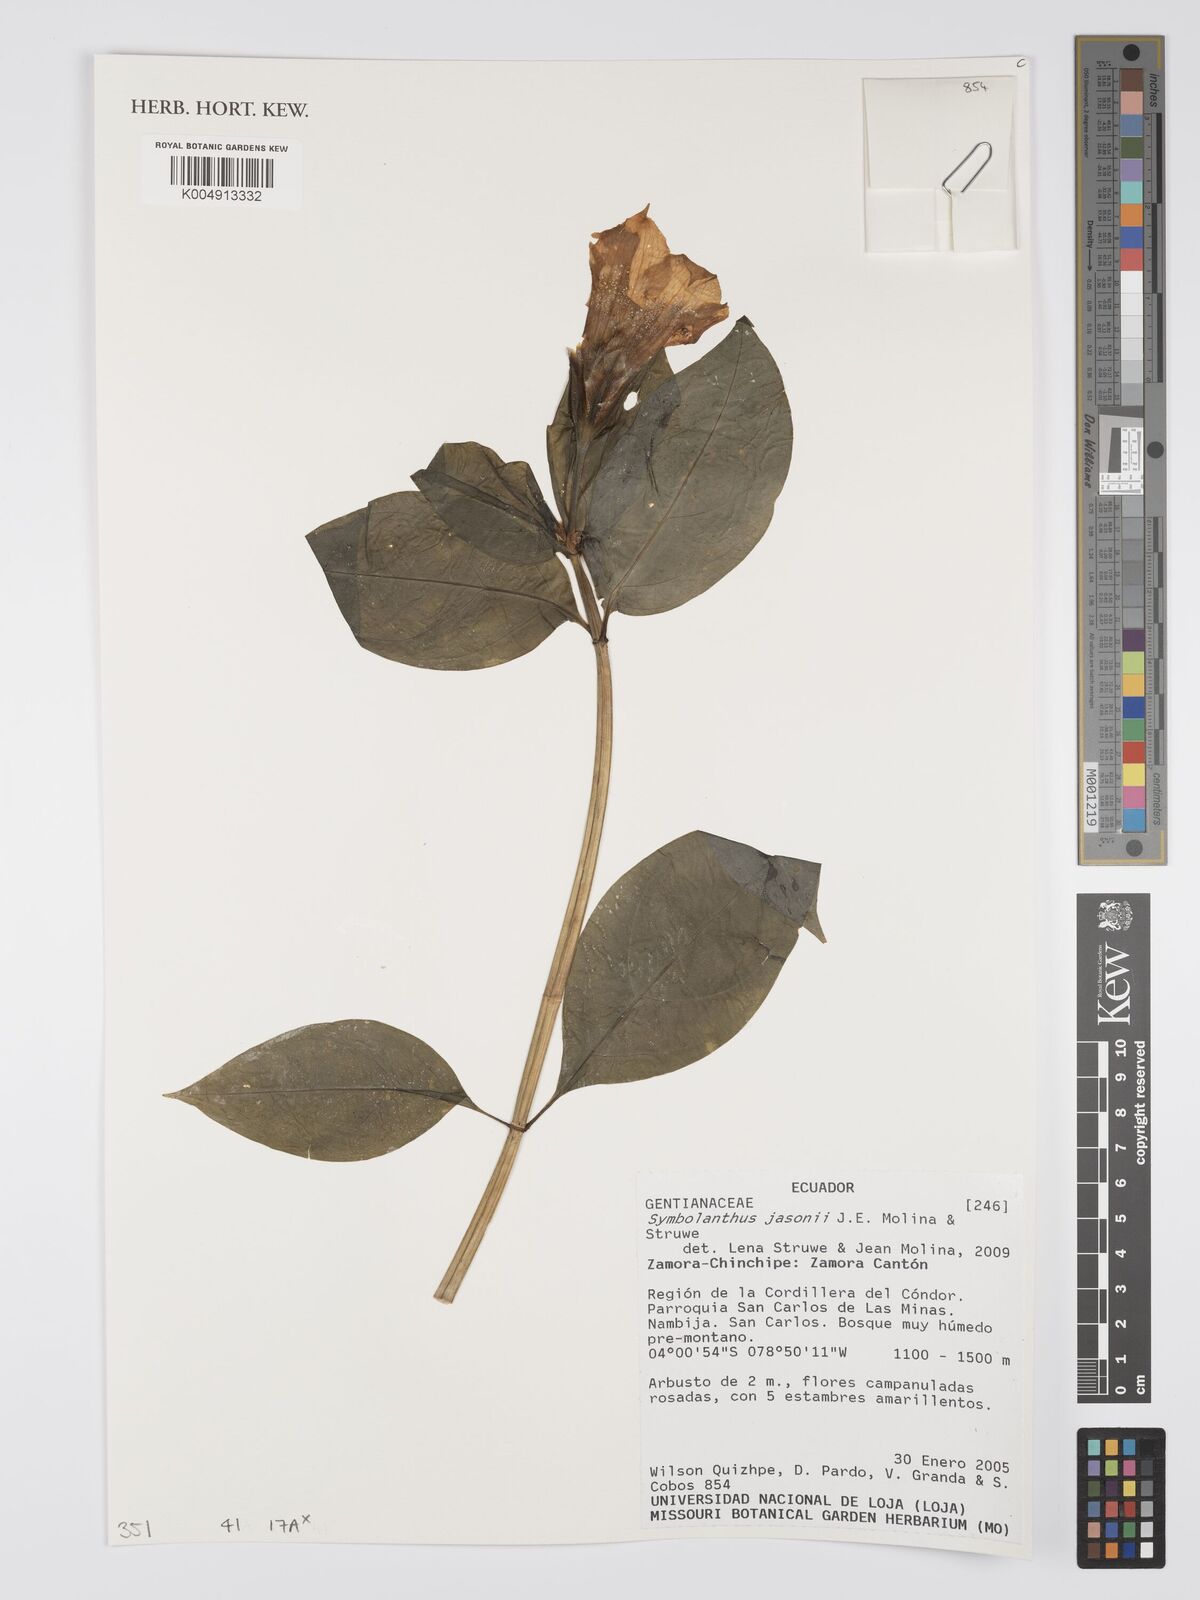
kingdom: Plantae
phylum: Tracheophyta
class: Magnoliopsida
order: Gentianales
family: Gentianaceae
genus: Symbolanthus
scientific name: Symbolanthus jasonii
